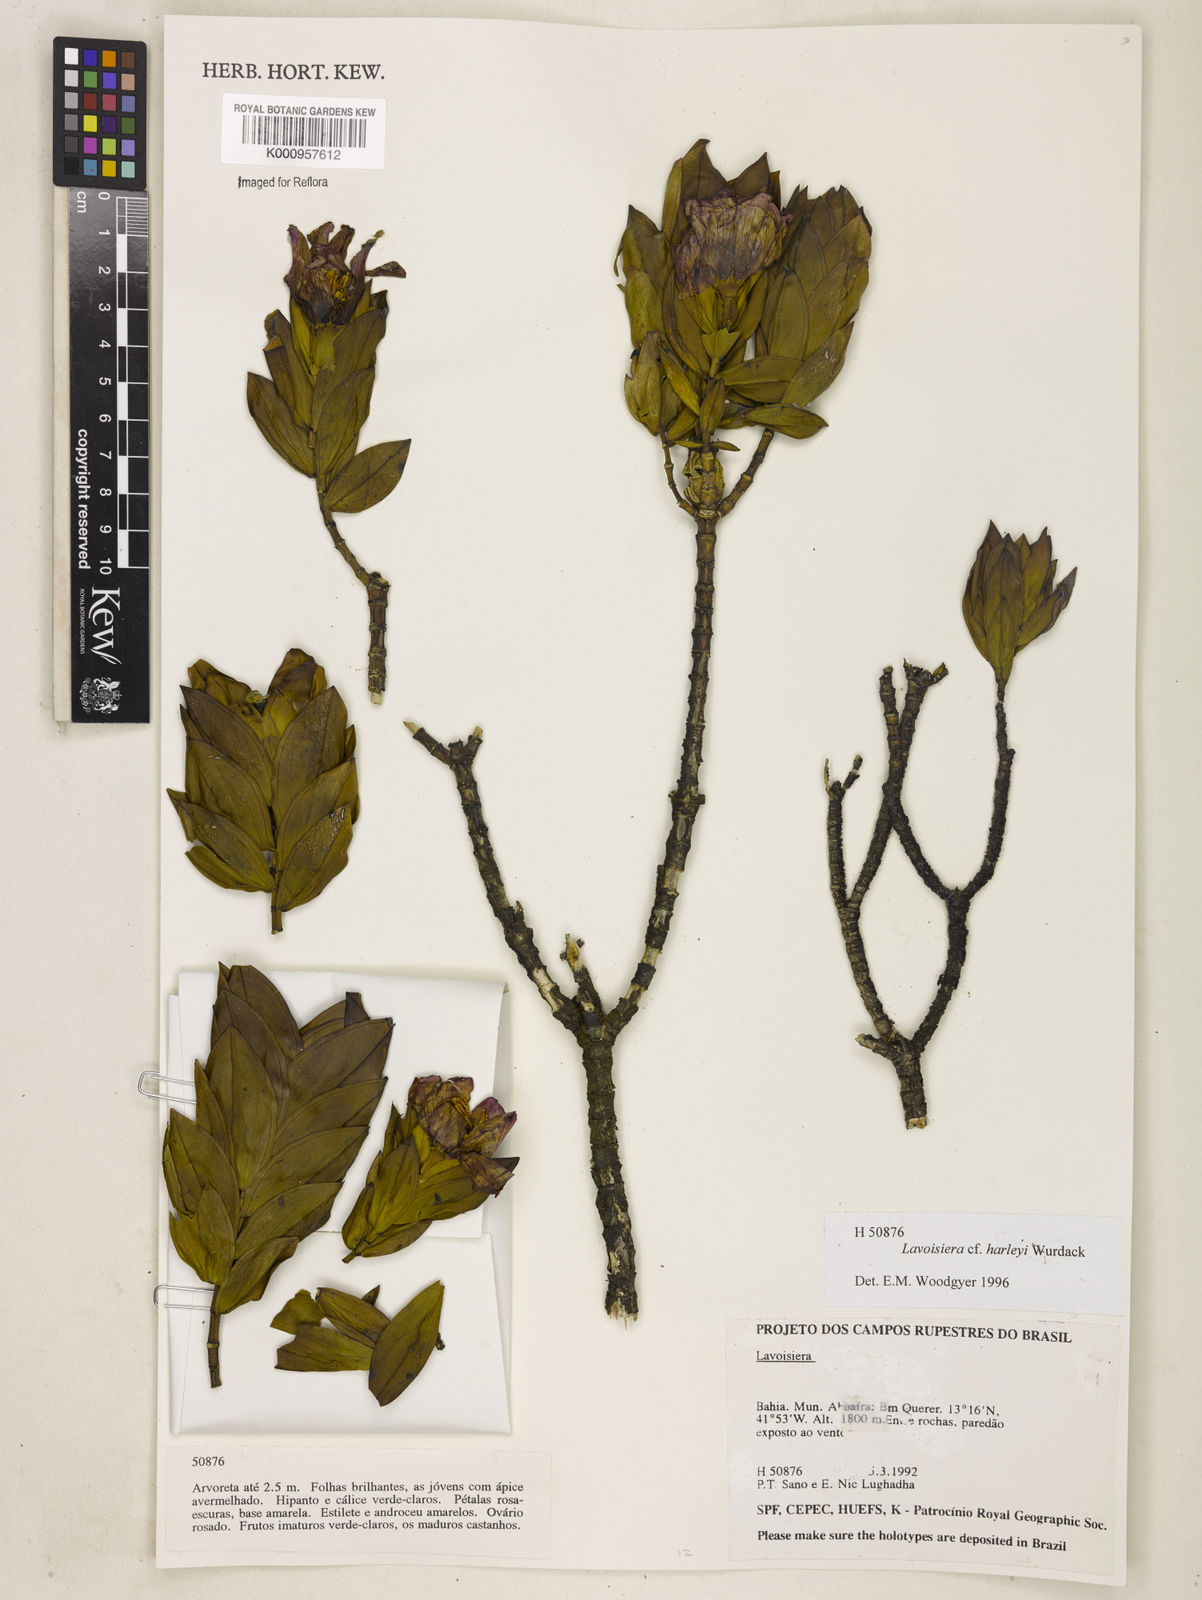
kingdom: Plantae
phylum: Tracheophyta
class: Magnoliopsida
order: Myrtales
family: Melastomataceae
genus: Microlicia
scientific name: Microlicia raymondii
